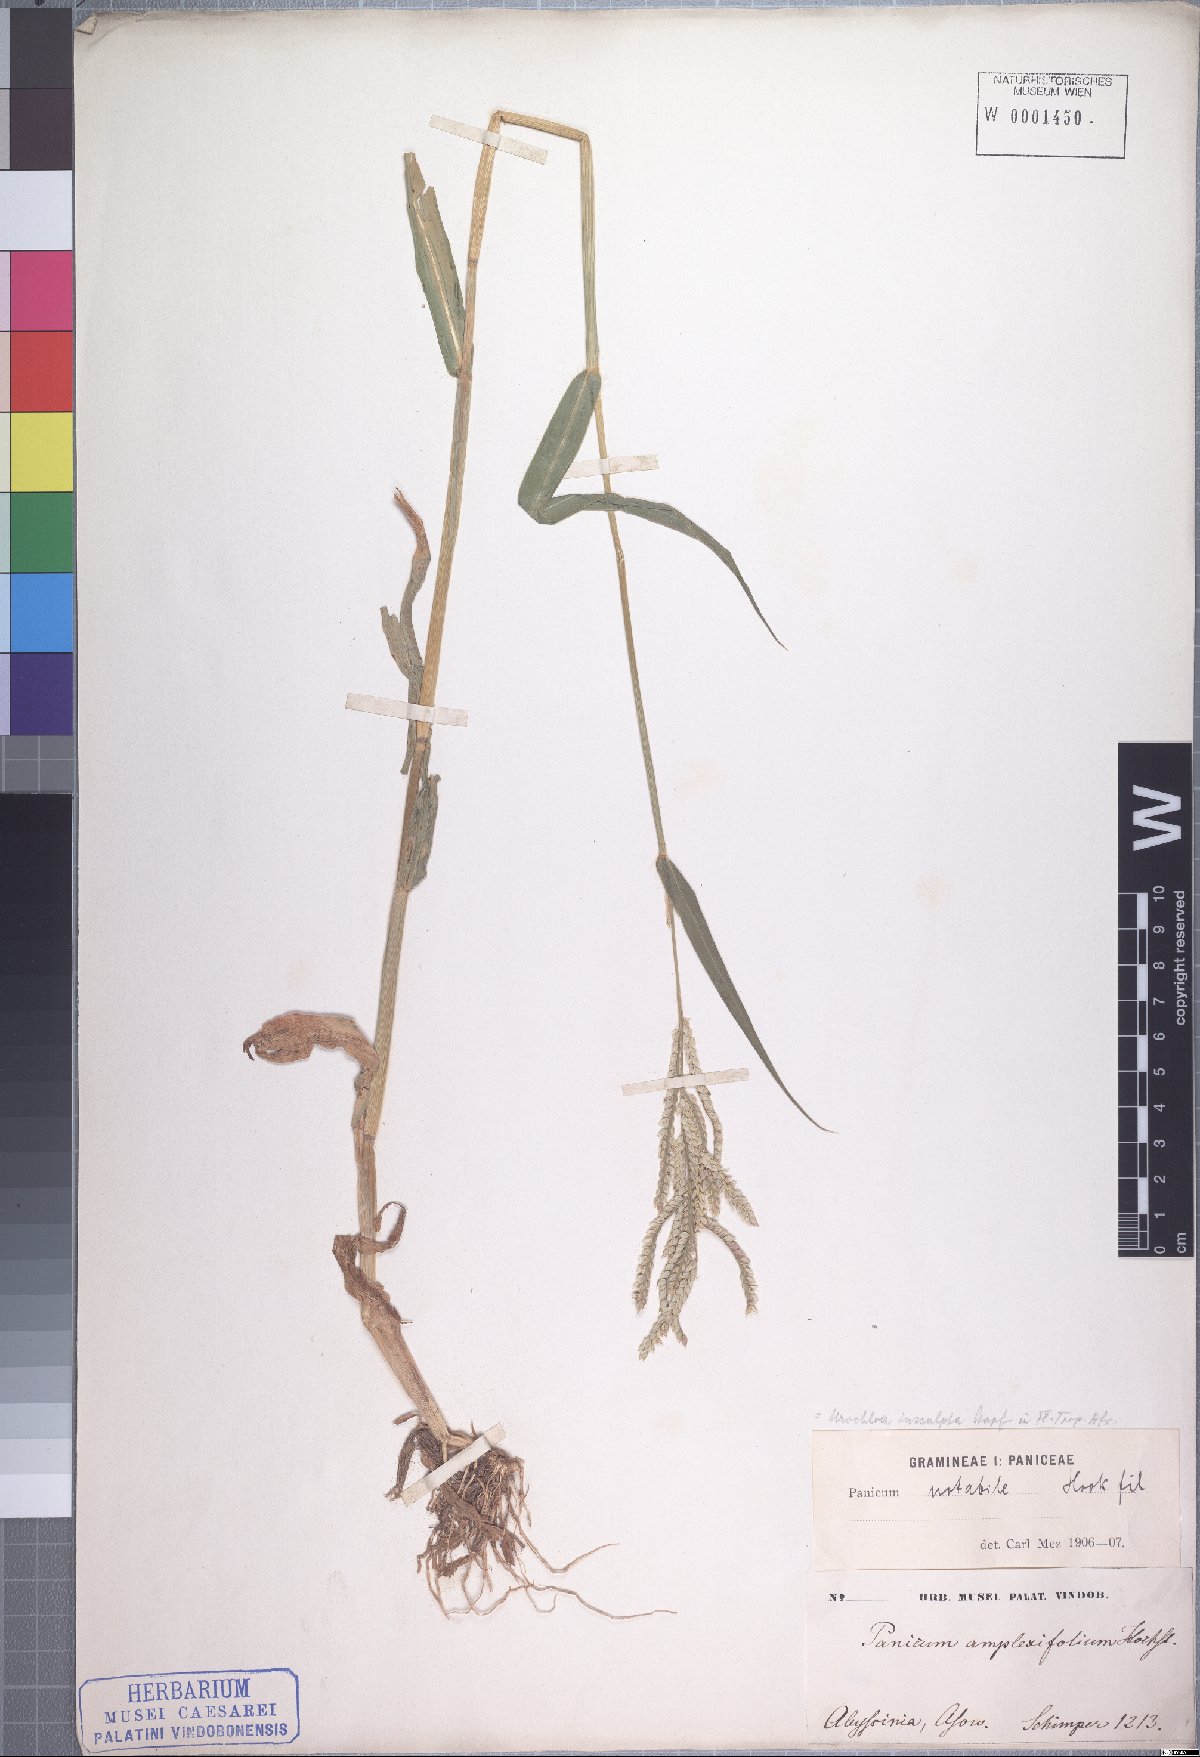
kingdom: Plantae
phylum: Tracheophyta
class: Liliopsida
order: Poales
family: Poaceae
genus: Urochloa
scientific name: Urochloa lata
